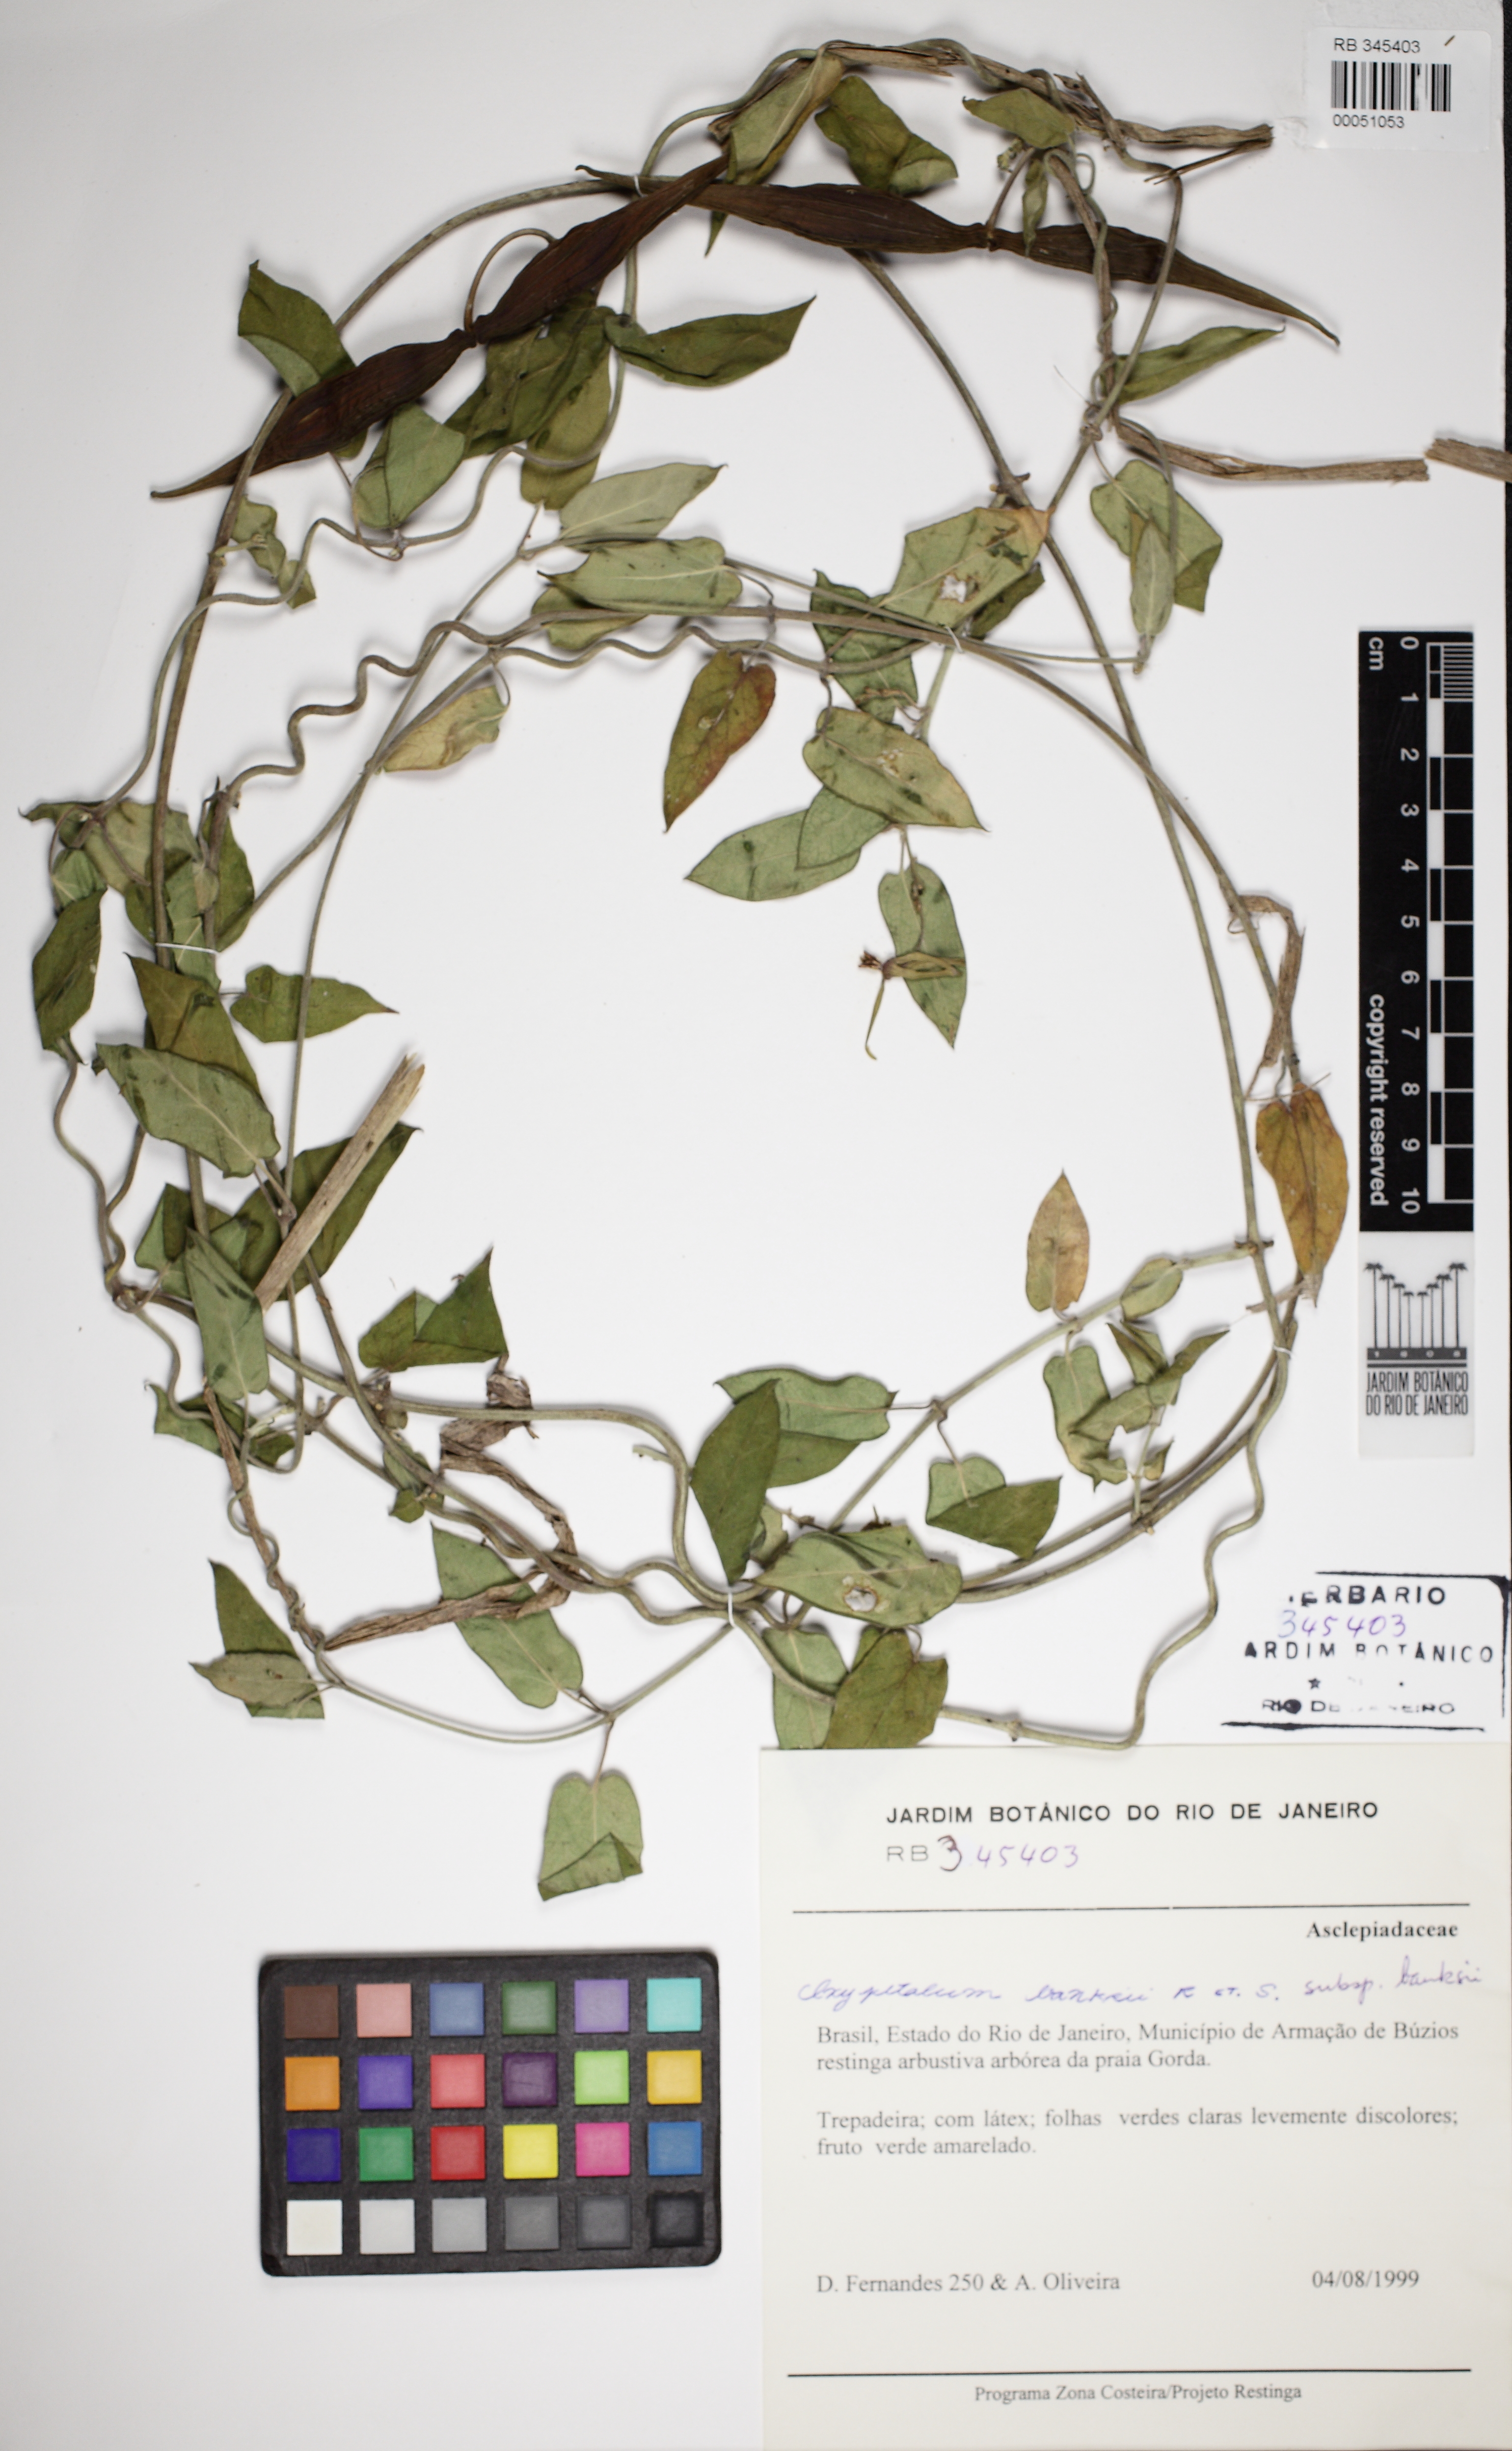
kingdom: Plantae
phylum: Tracheophyta
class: Magnoliopsida
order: Gentianales
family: Apocynaceae
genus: Oxypetalum
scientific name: Oxypetalum banksii
